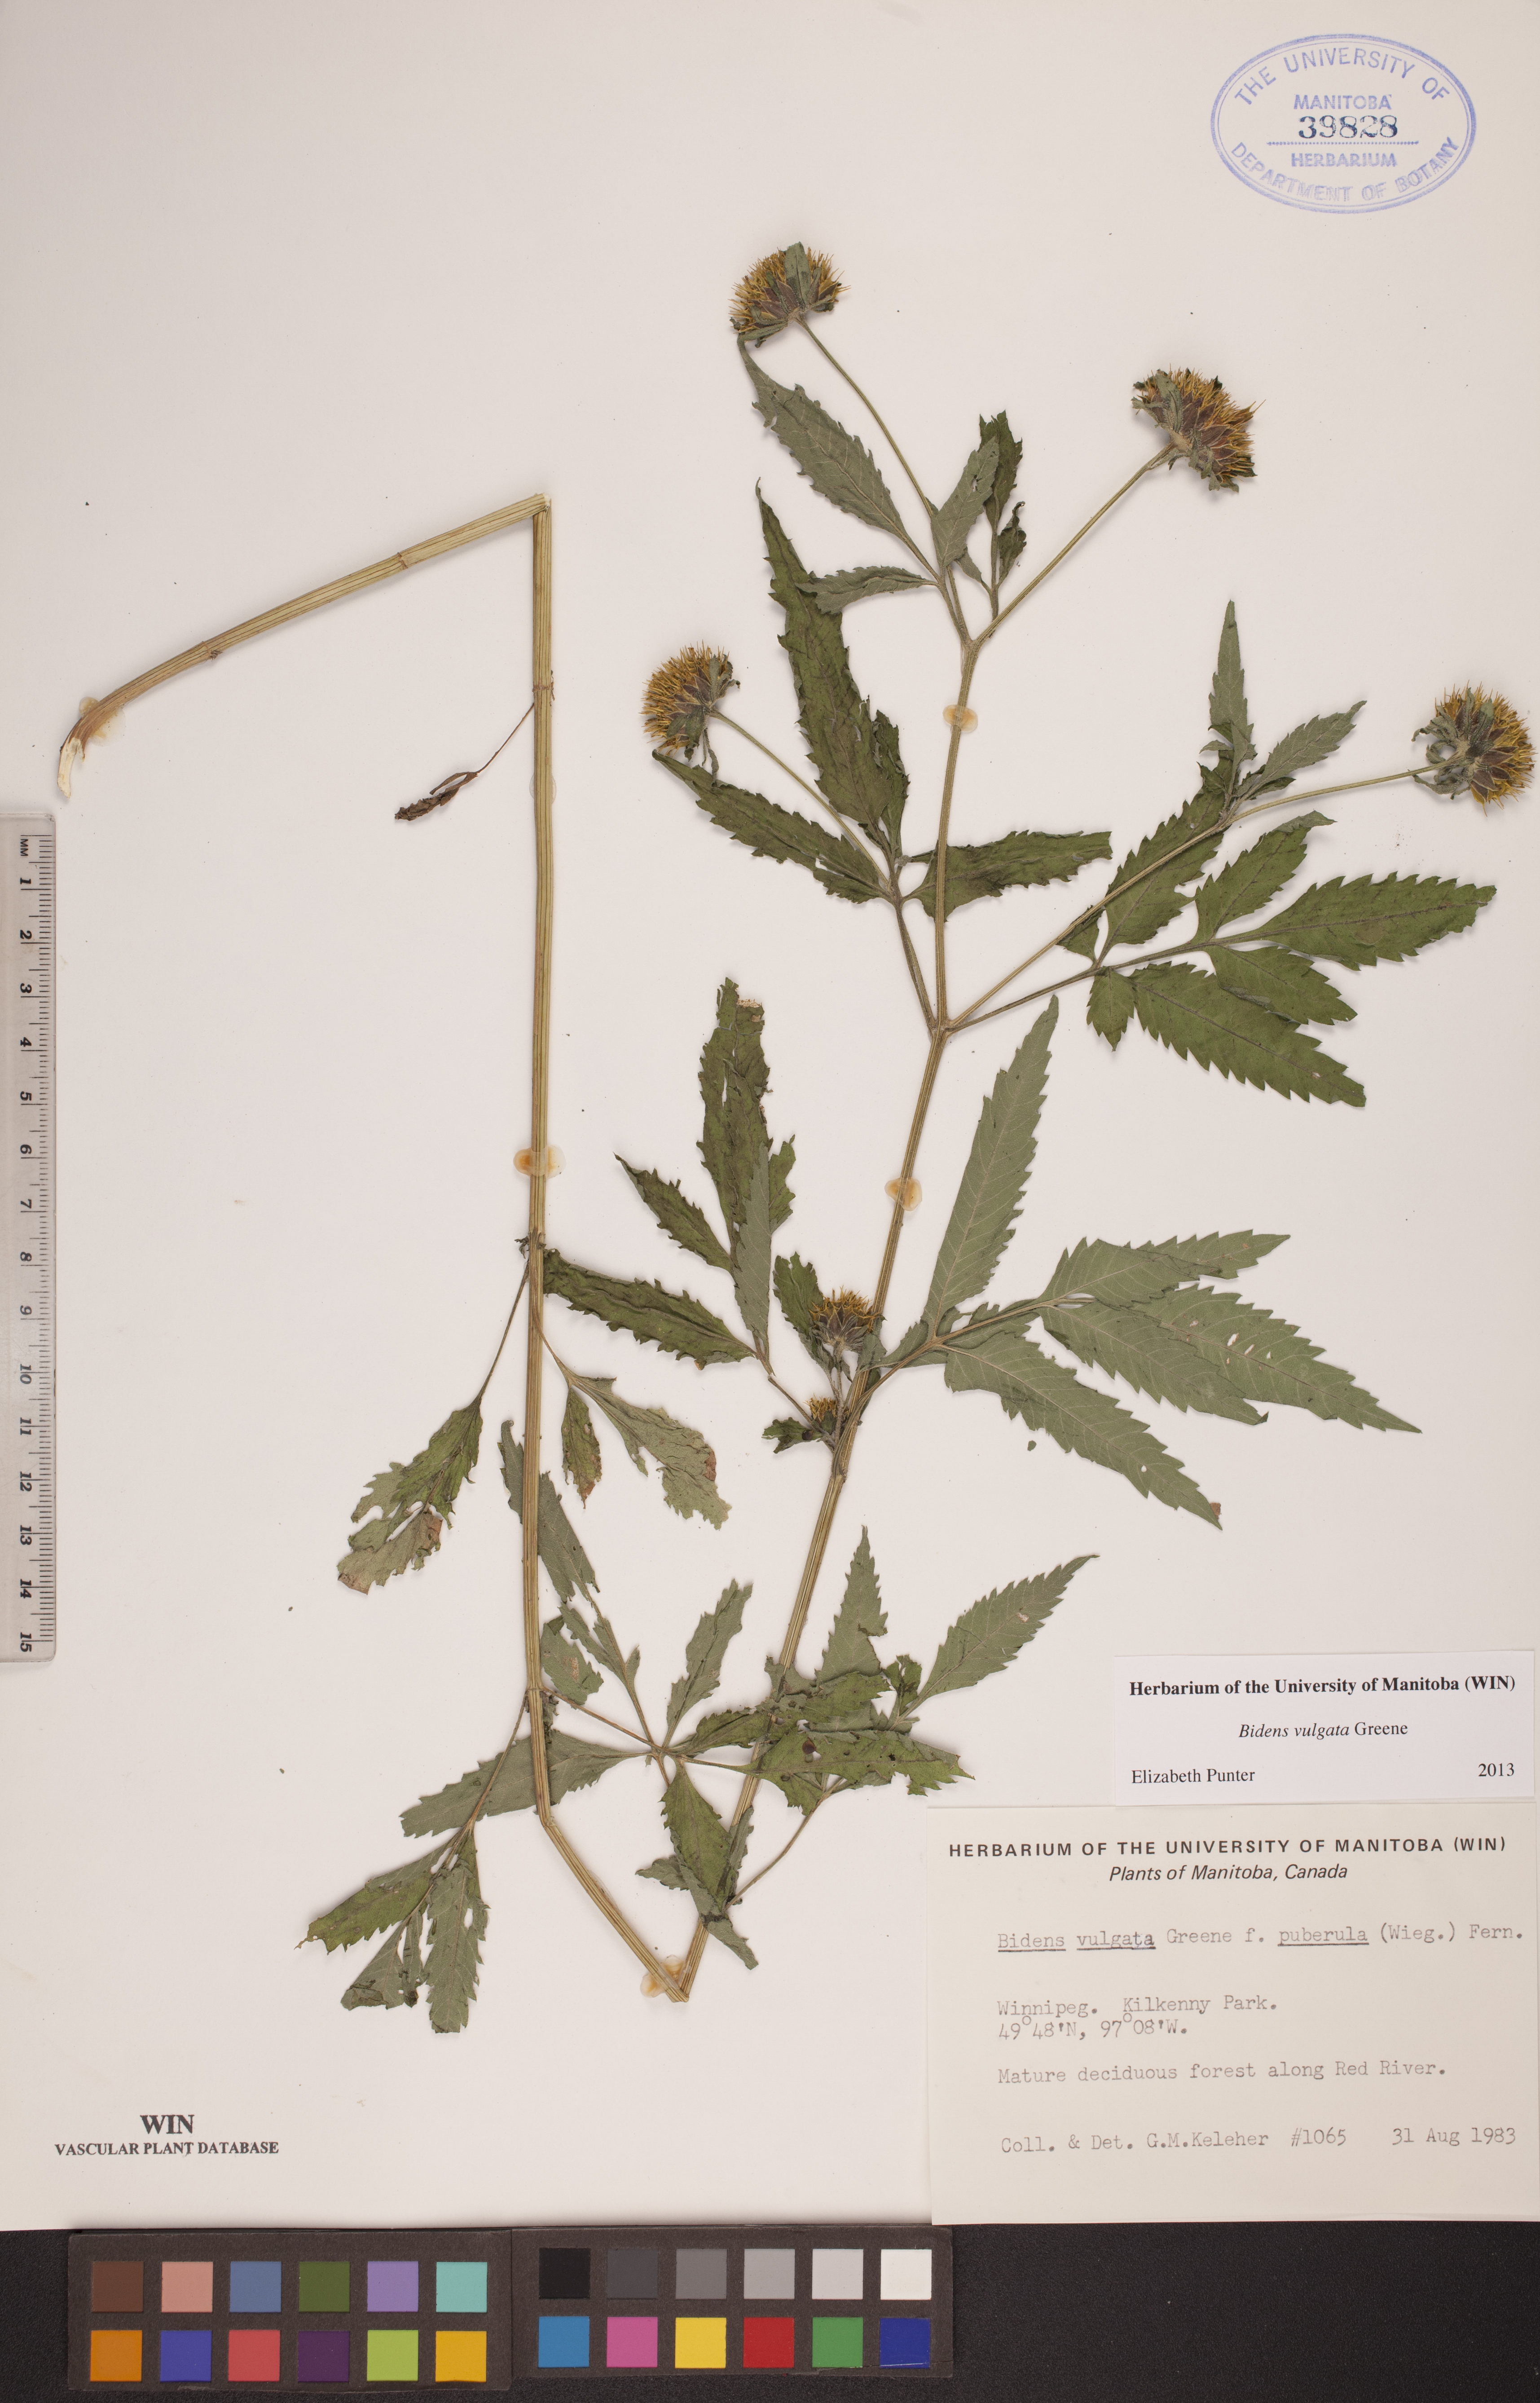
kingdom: Plantae
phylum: Tracheophyta
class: Magnoliopsida
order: Asterales
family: Asteraceae
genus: Bidens
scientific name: Bidens vulgata
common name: Tall beggarticks
